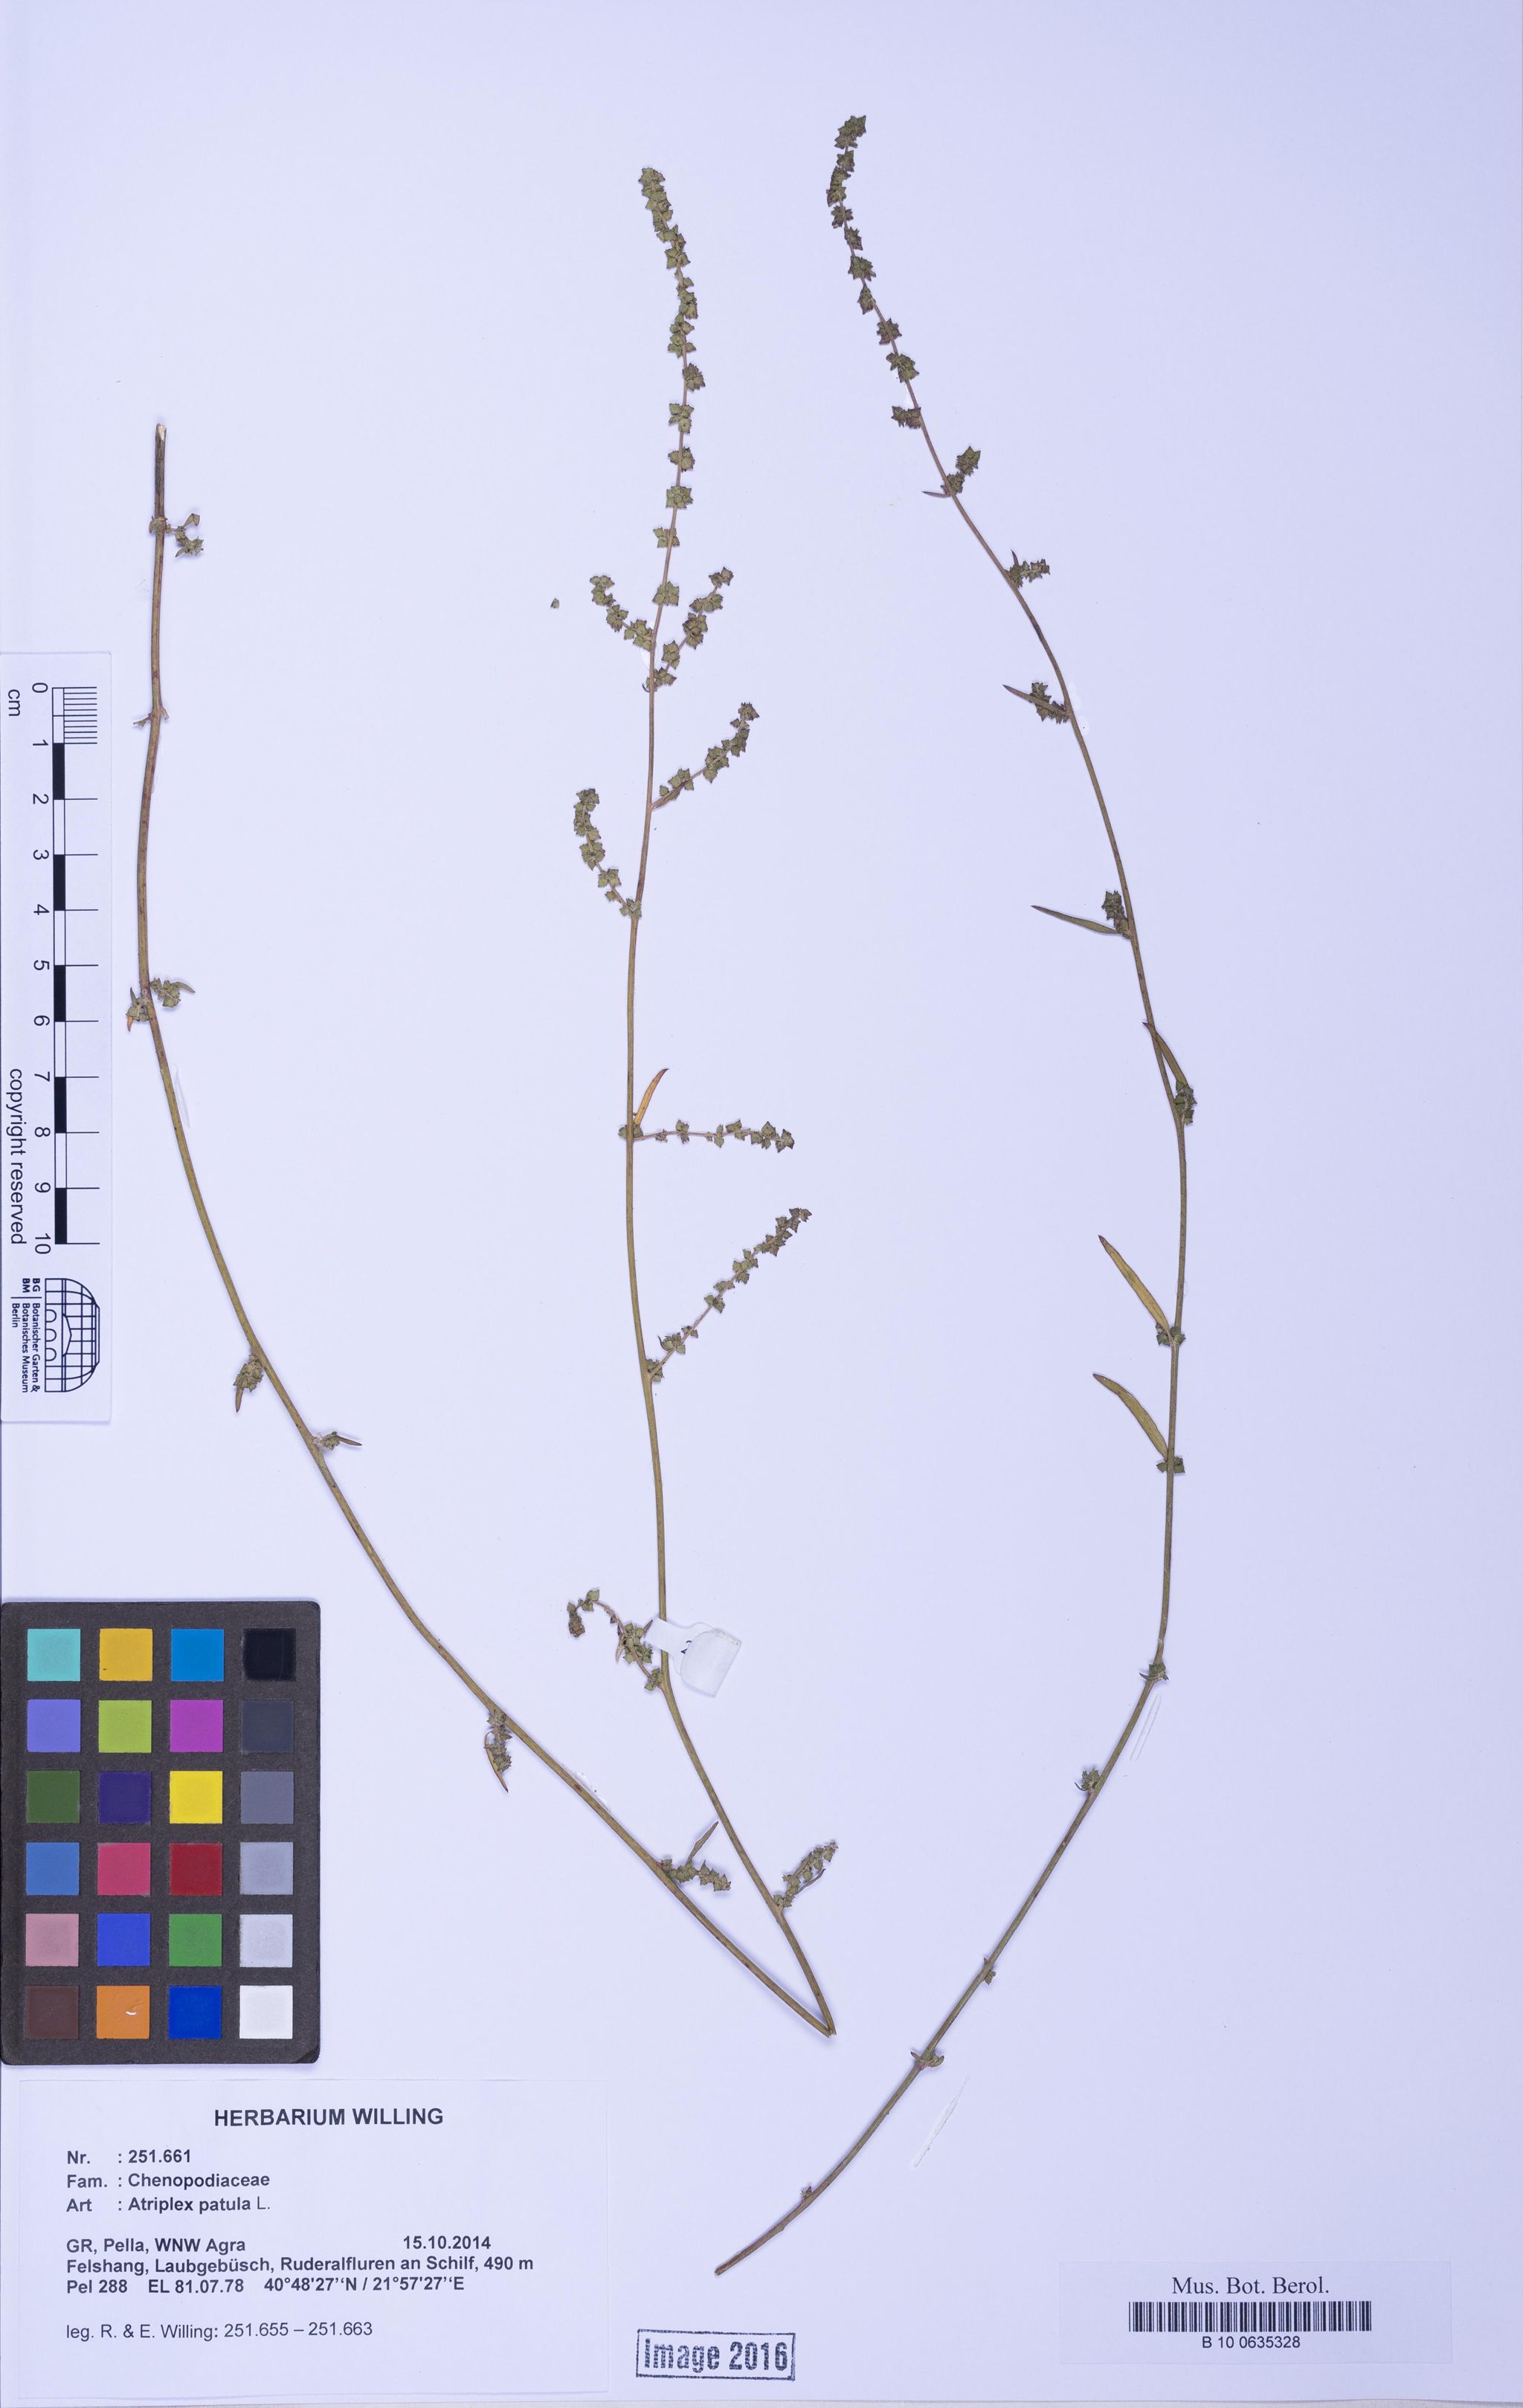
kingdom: Plantae
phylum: Tracheophyta
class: Magnoliopsida
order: Caryophyllales
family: Amaranthaceae
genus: Atriplex
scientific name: Atriplex patula
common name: Common orache
